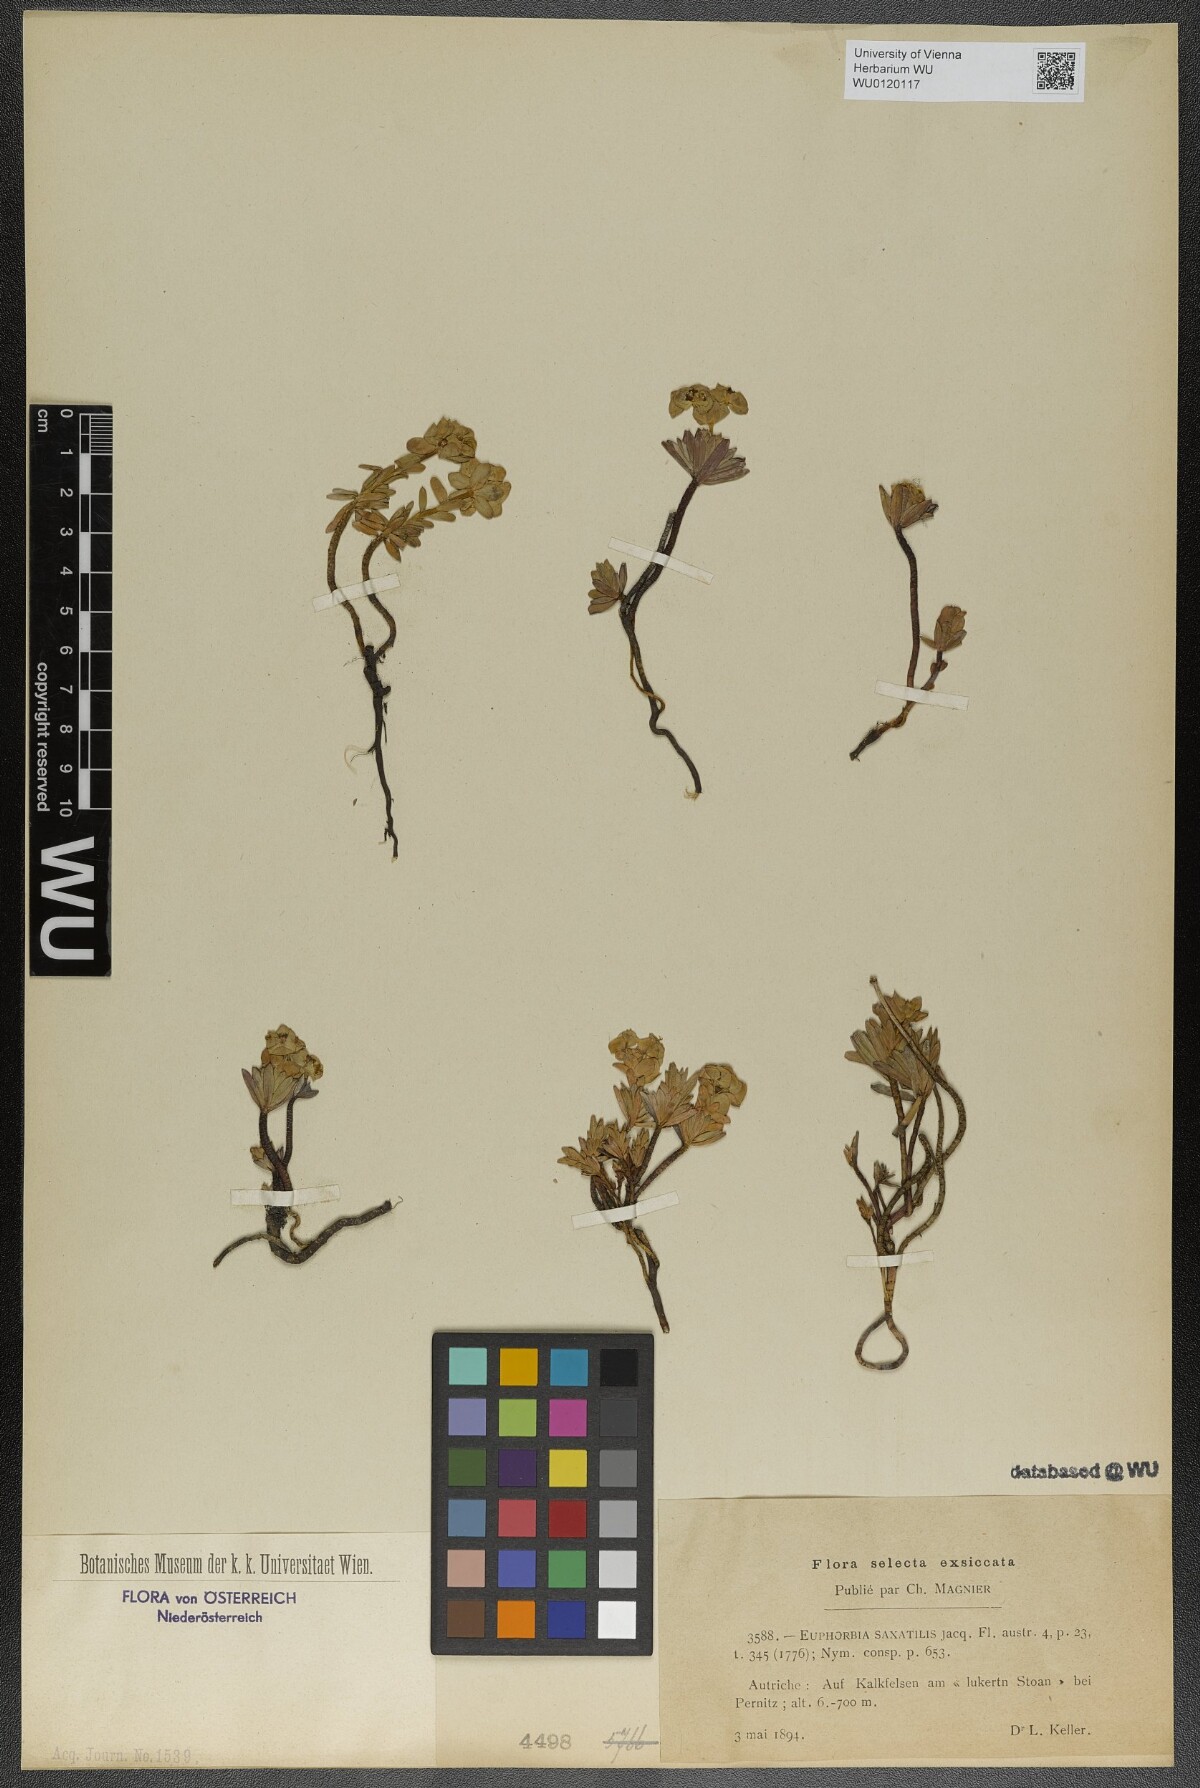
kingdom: Plantae
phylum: Tracheophyta
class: Magnoliopsida
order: Malpighiales
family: Euphorbiaceae
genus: Euphorbia
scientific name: Euphorbia saxatilis
